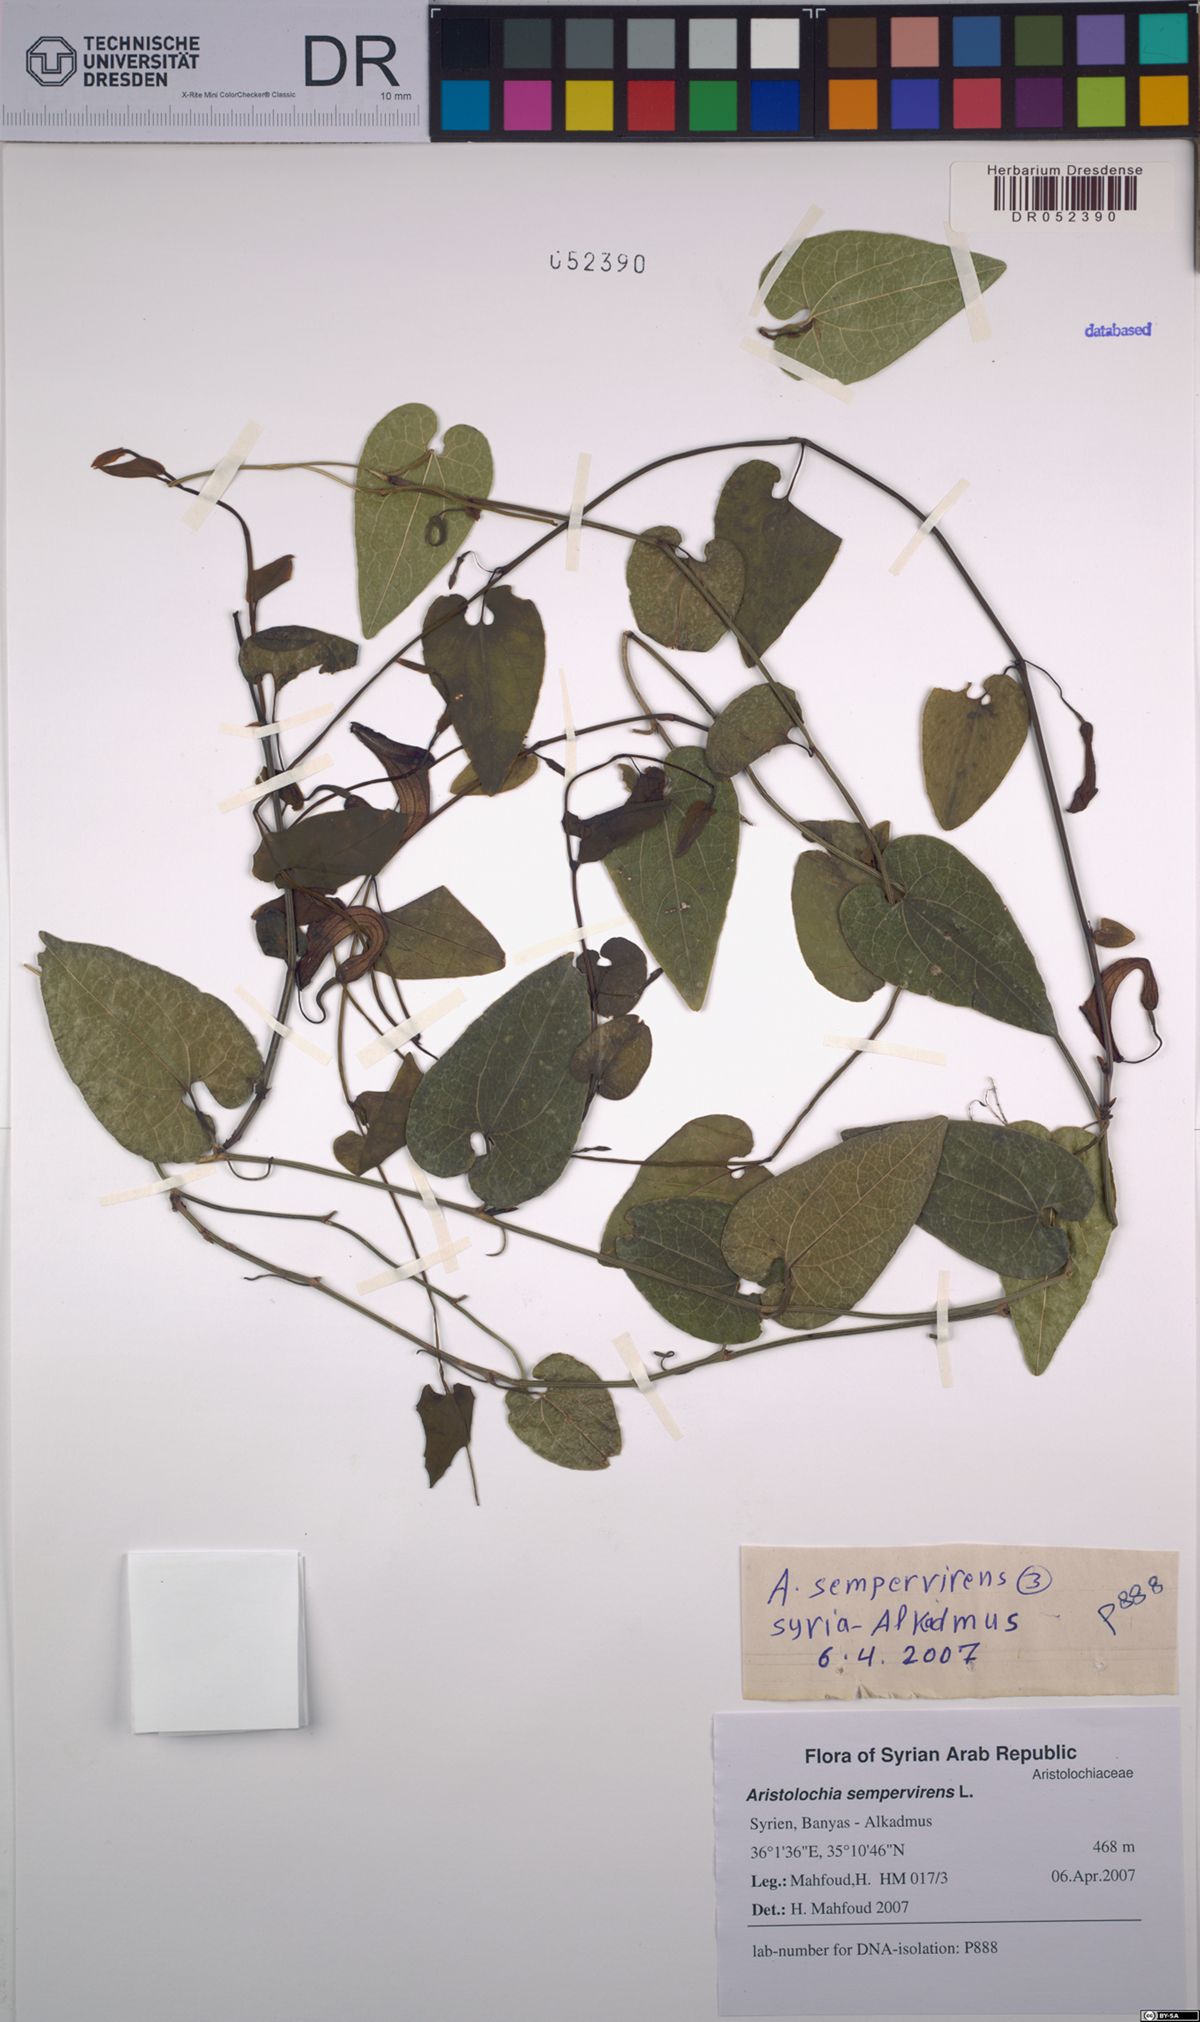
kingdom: Plantae
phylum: Tracheophyta
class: Magnoliopsida
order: Piperales
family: Aristolochiaceae
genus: Aristolochia
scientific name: Aristolochia sempervirens
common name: Long birthwort
